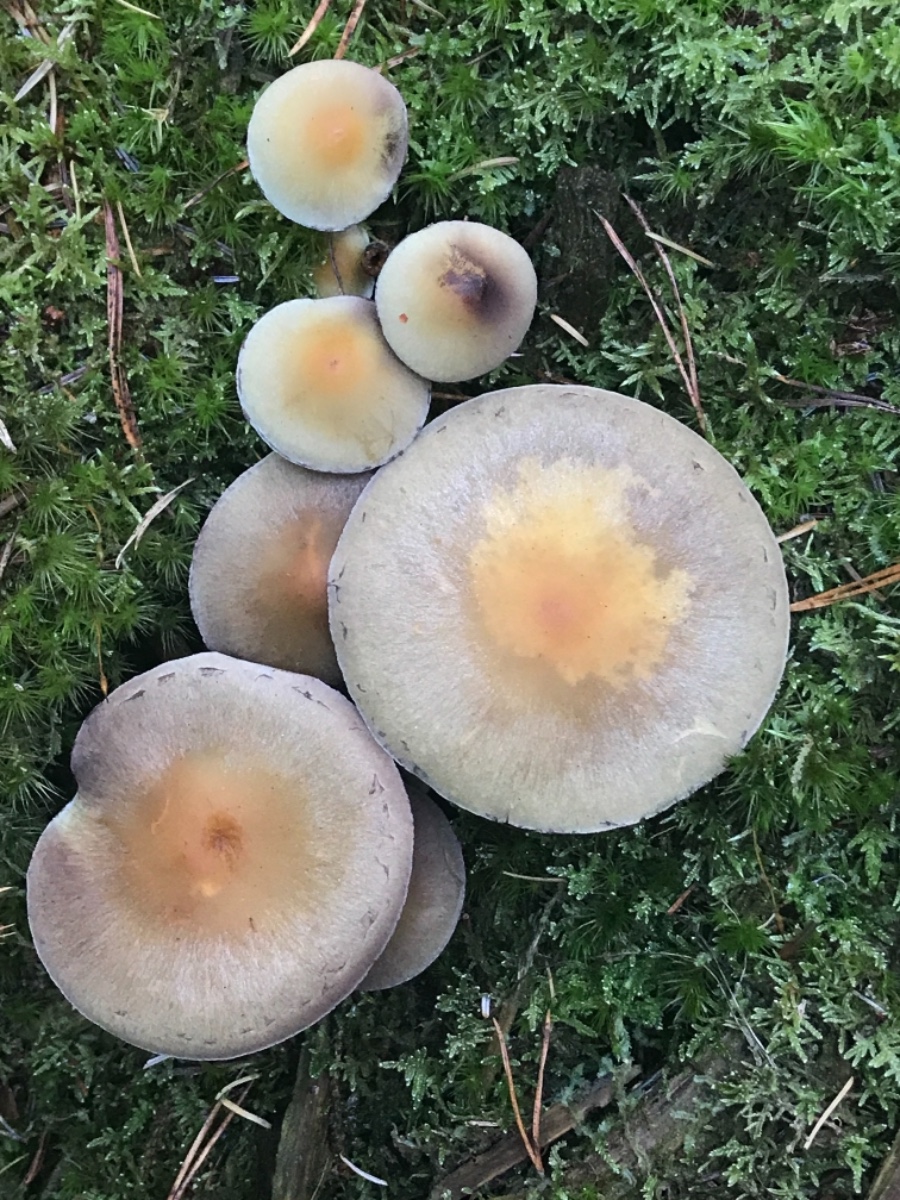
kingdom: Fungi
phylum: Basidiomycota
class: Agaricomycetes
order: Agaricales
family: Strophariaceae
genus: Hypholoma
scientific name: Hypholoma capnoides
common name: gran-svovlhat
